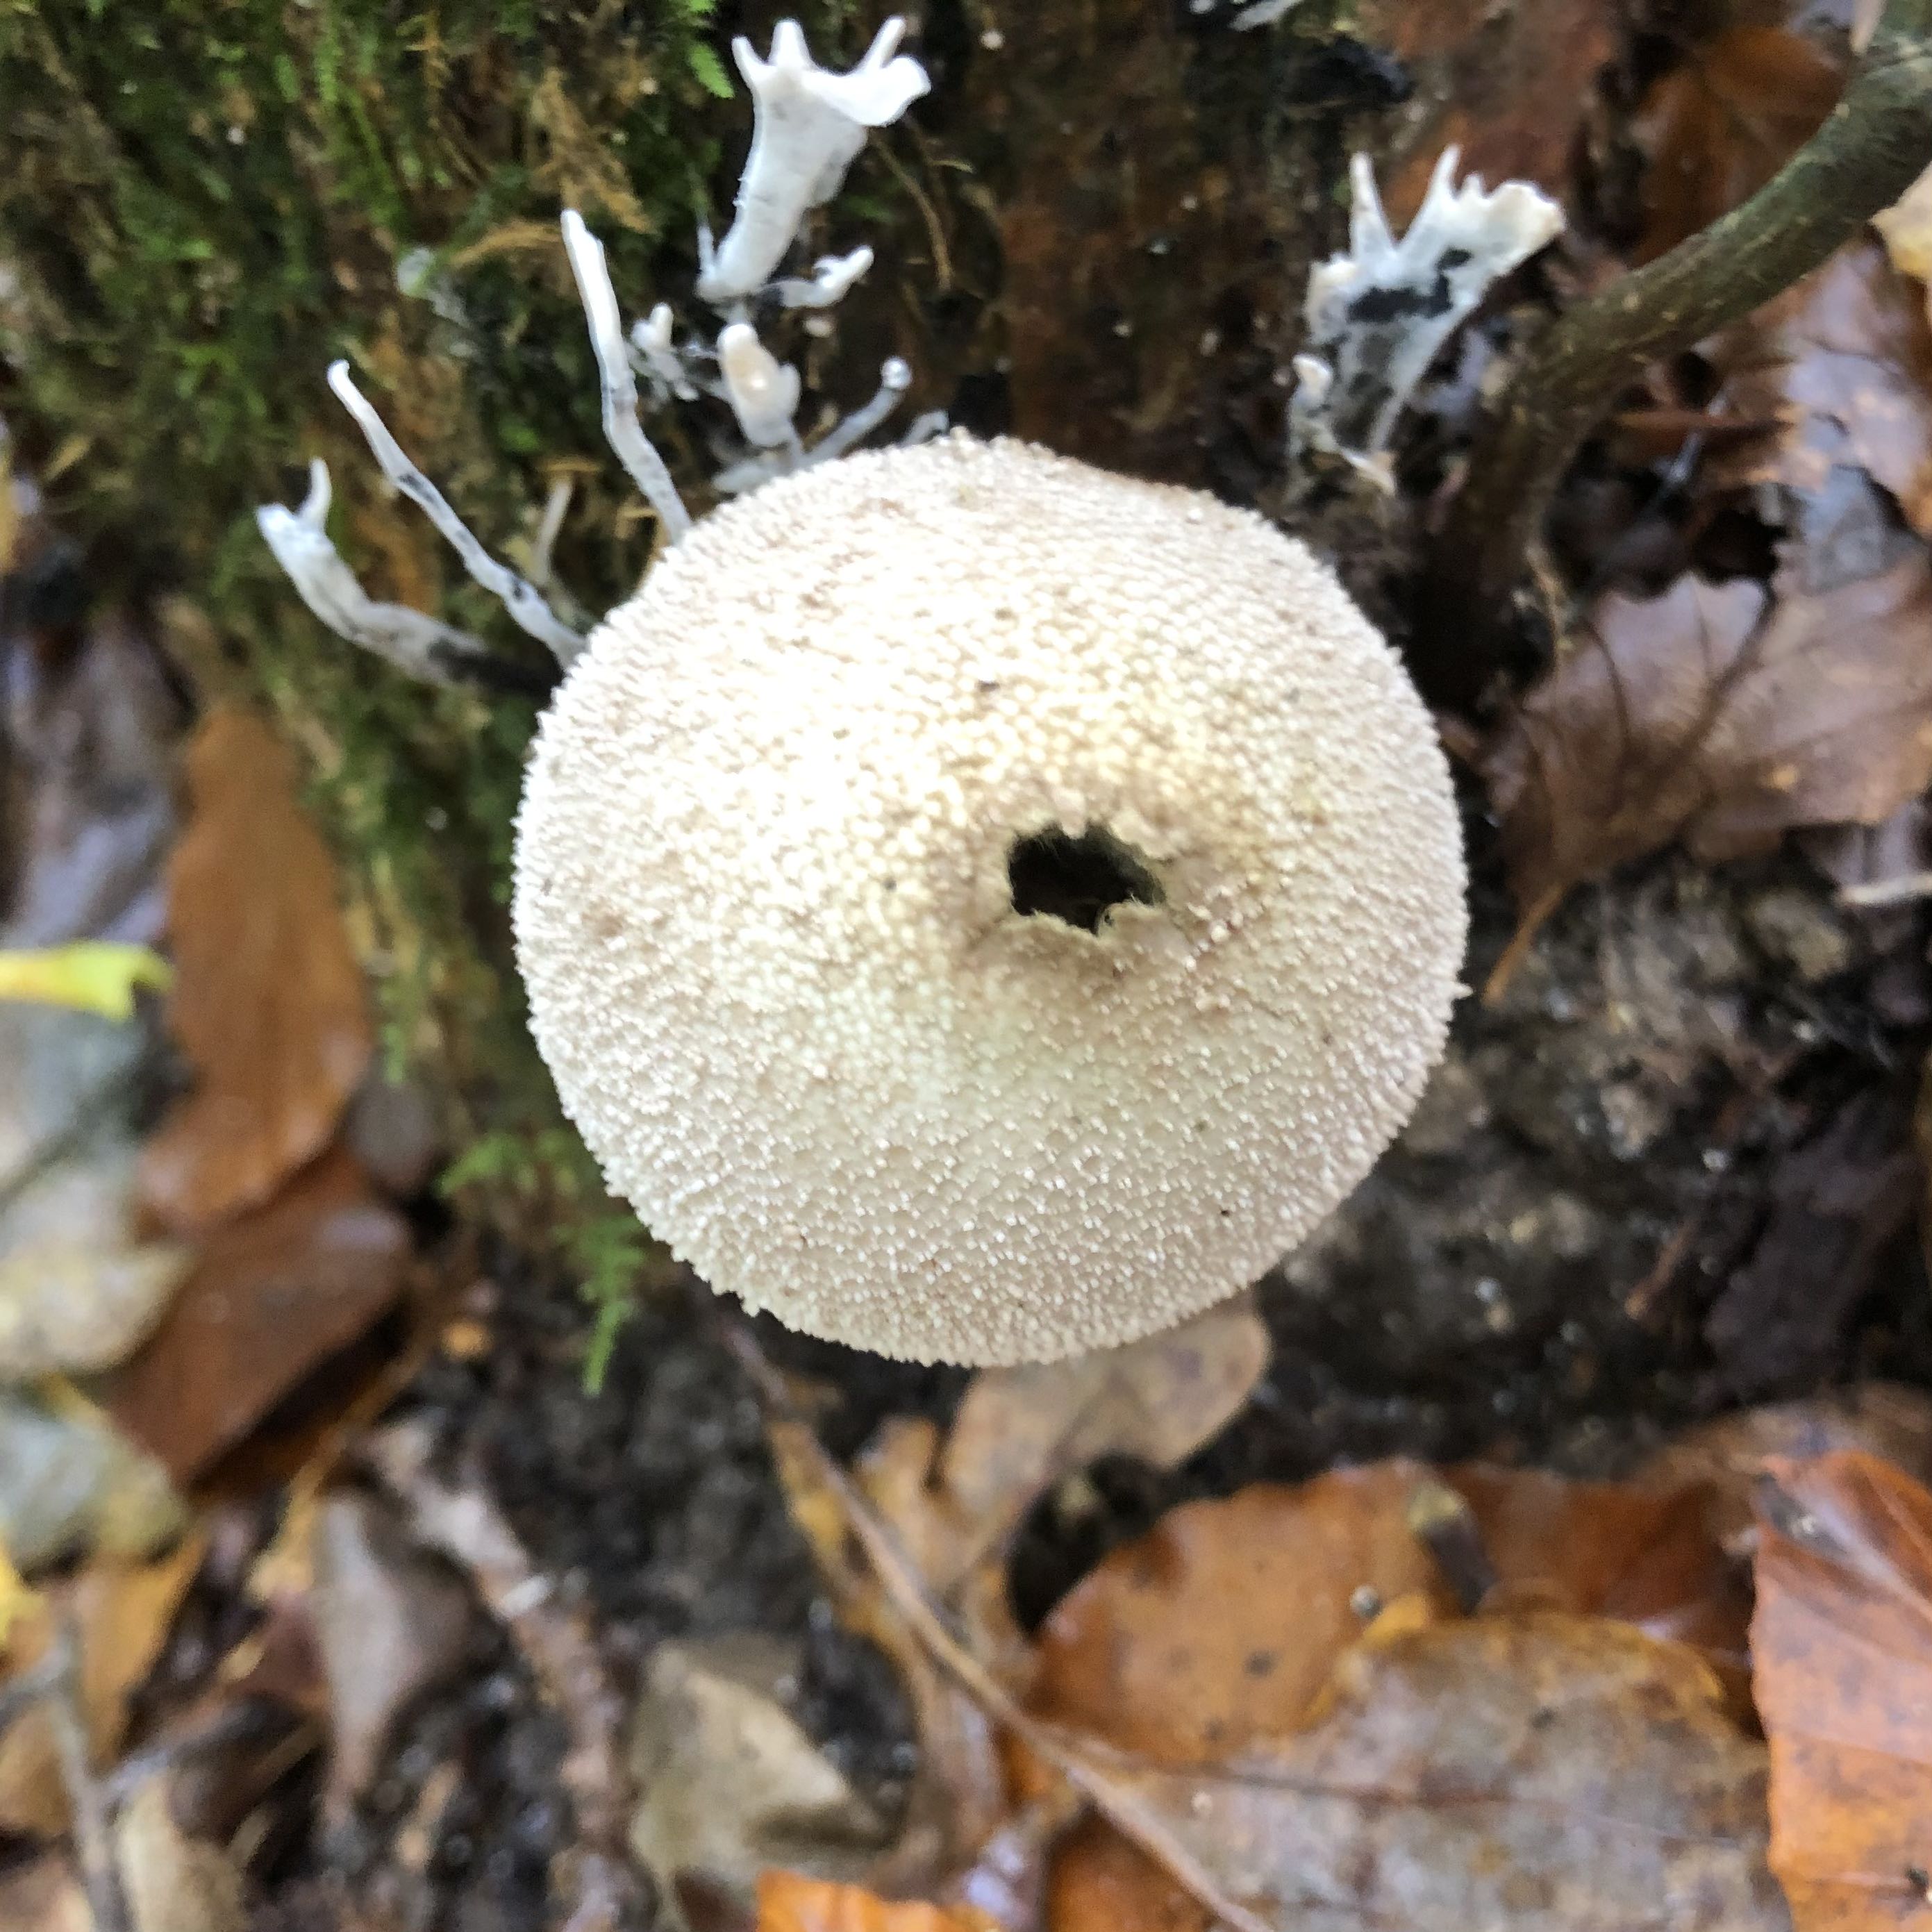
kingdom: Fungi
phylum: Basidiomycota
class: Agaricomycetes
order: Agaricales
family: Lycoperdaceae
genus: Lycoperdon
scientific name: Lycoperdon perlatum
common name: krystal-støvbold
